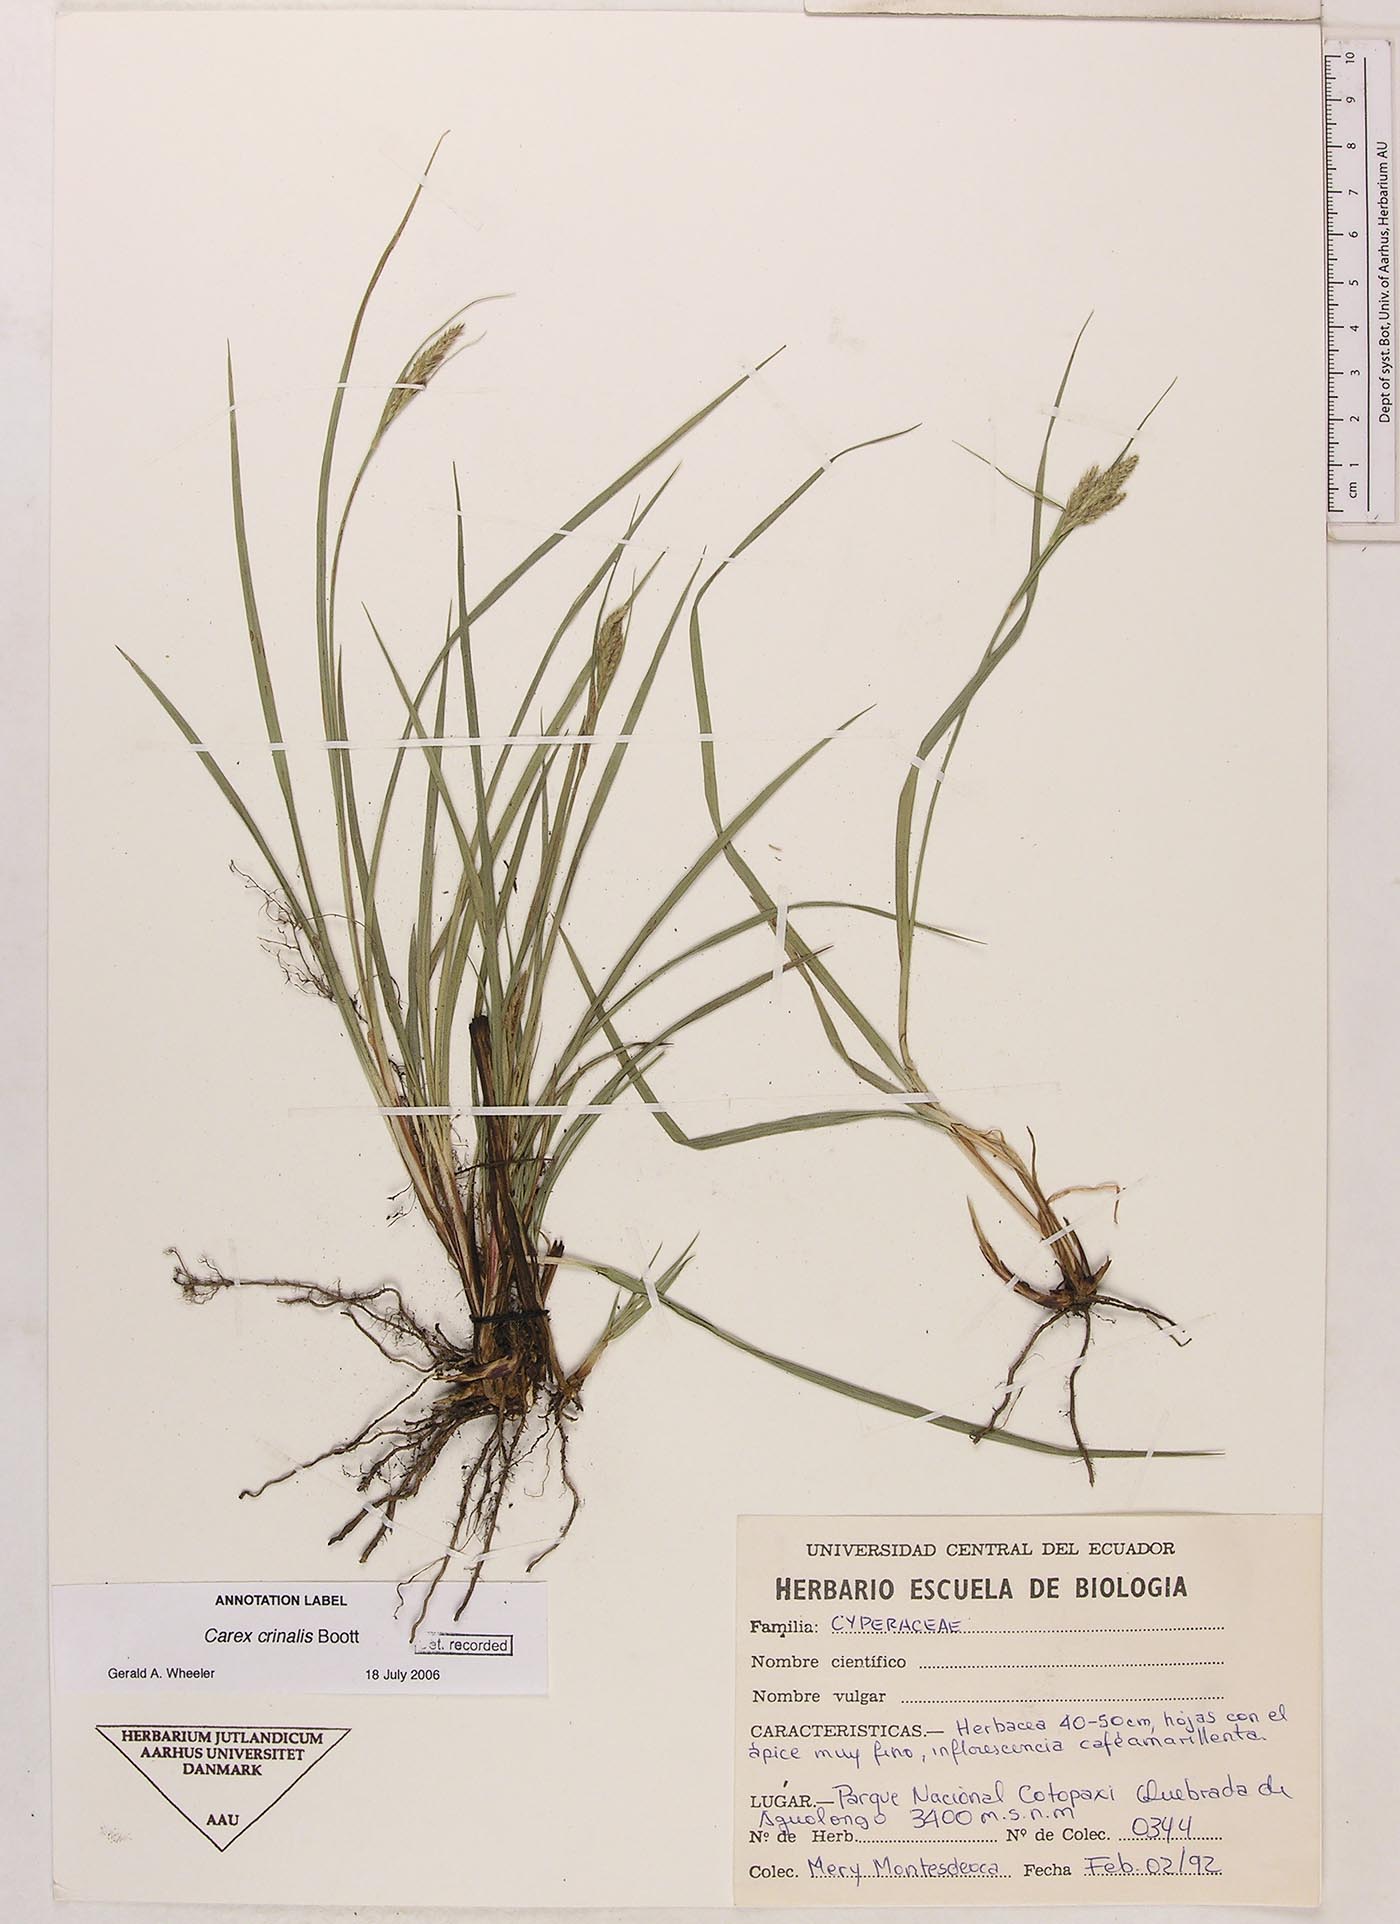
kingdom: Plantae
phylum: Tracheophyta
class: Liliopsida
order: Poales
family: Cyperaceae
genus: Carex
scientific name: Carex crinalis
